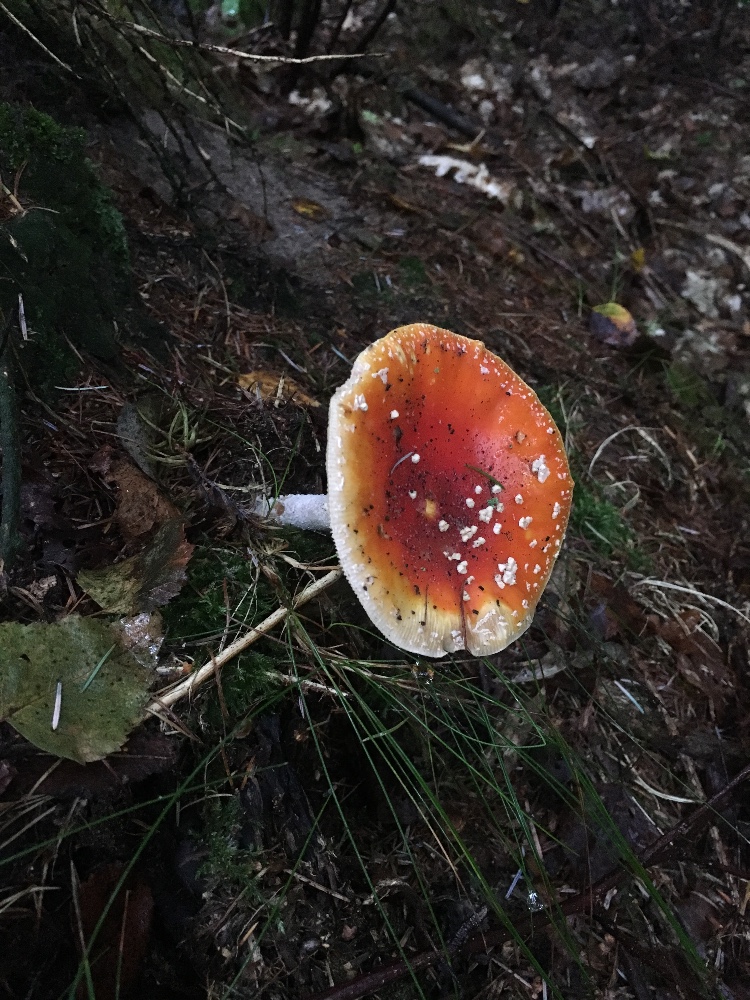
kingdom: Fungi
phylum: Basidiomycota
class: Agaricomycetes
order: Agaricales
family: Amanitaceae
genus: Amanita
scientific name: Amanita muscaria
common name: rød fluesvamp
